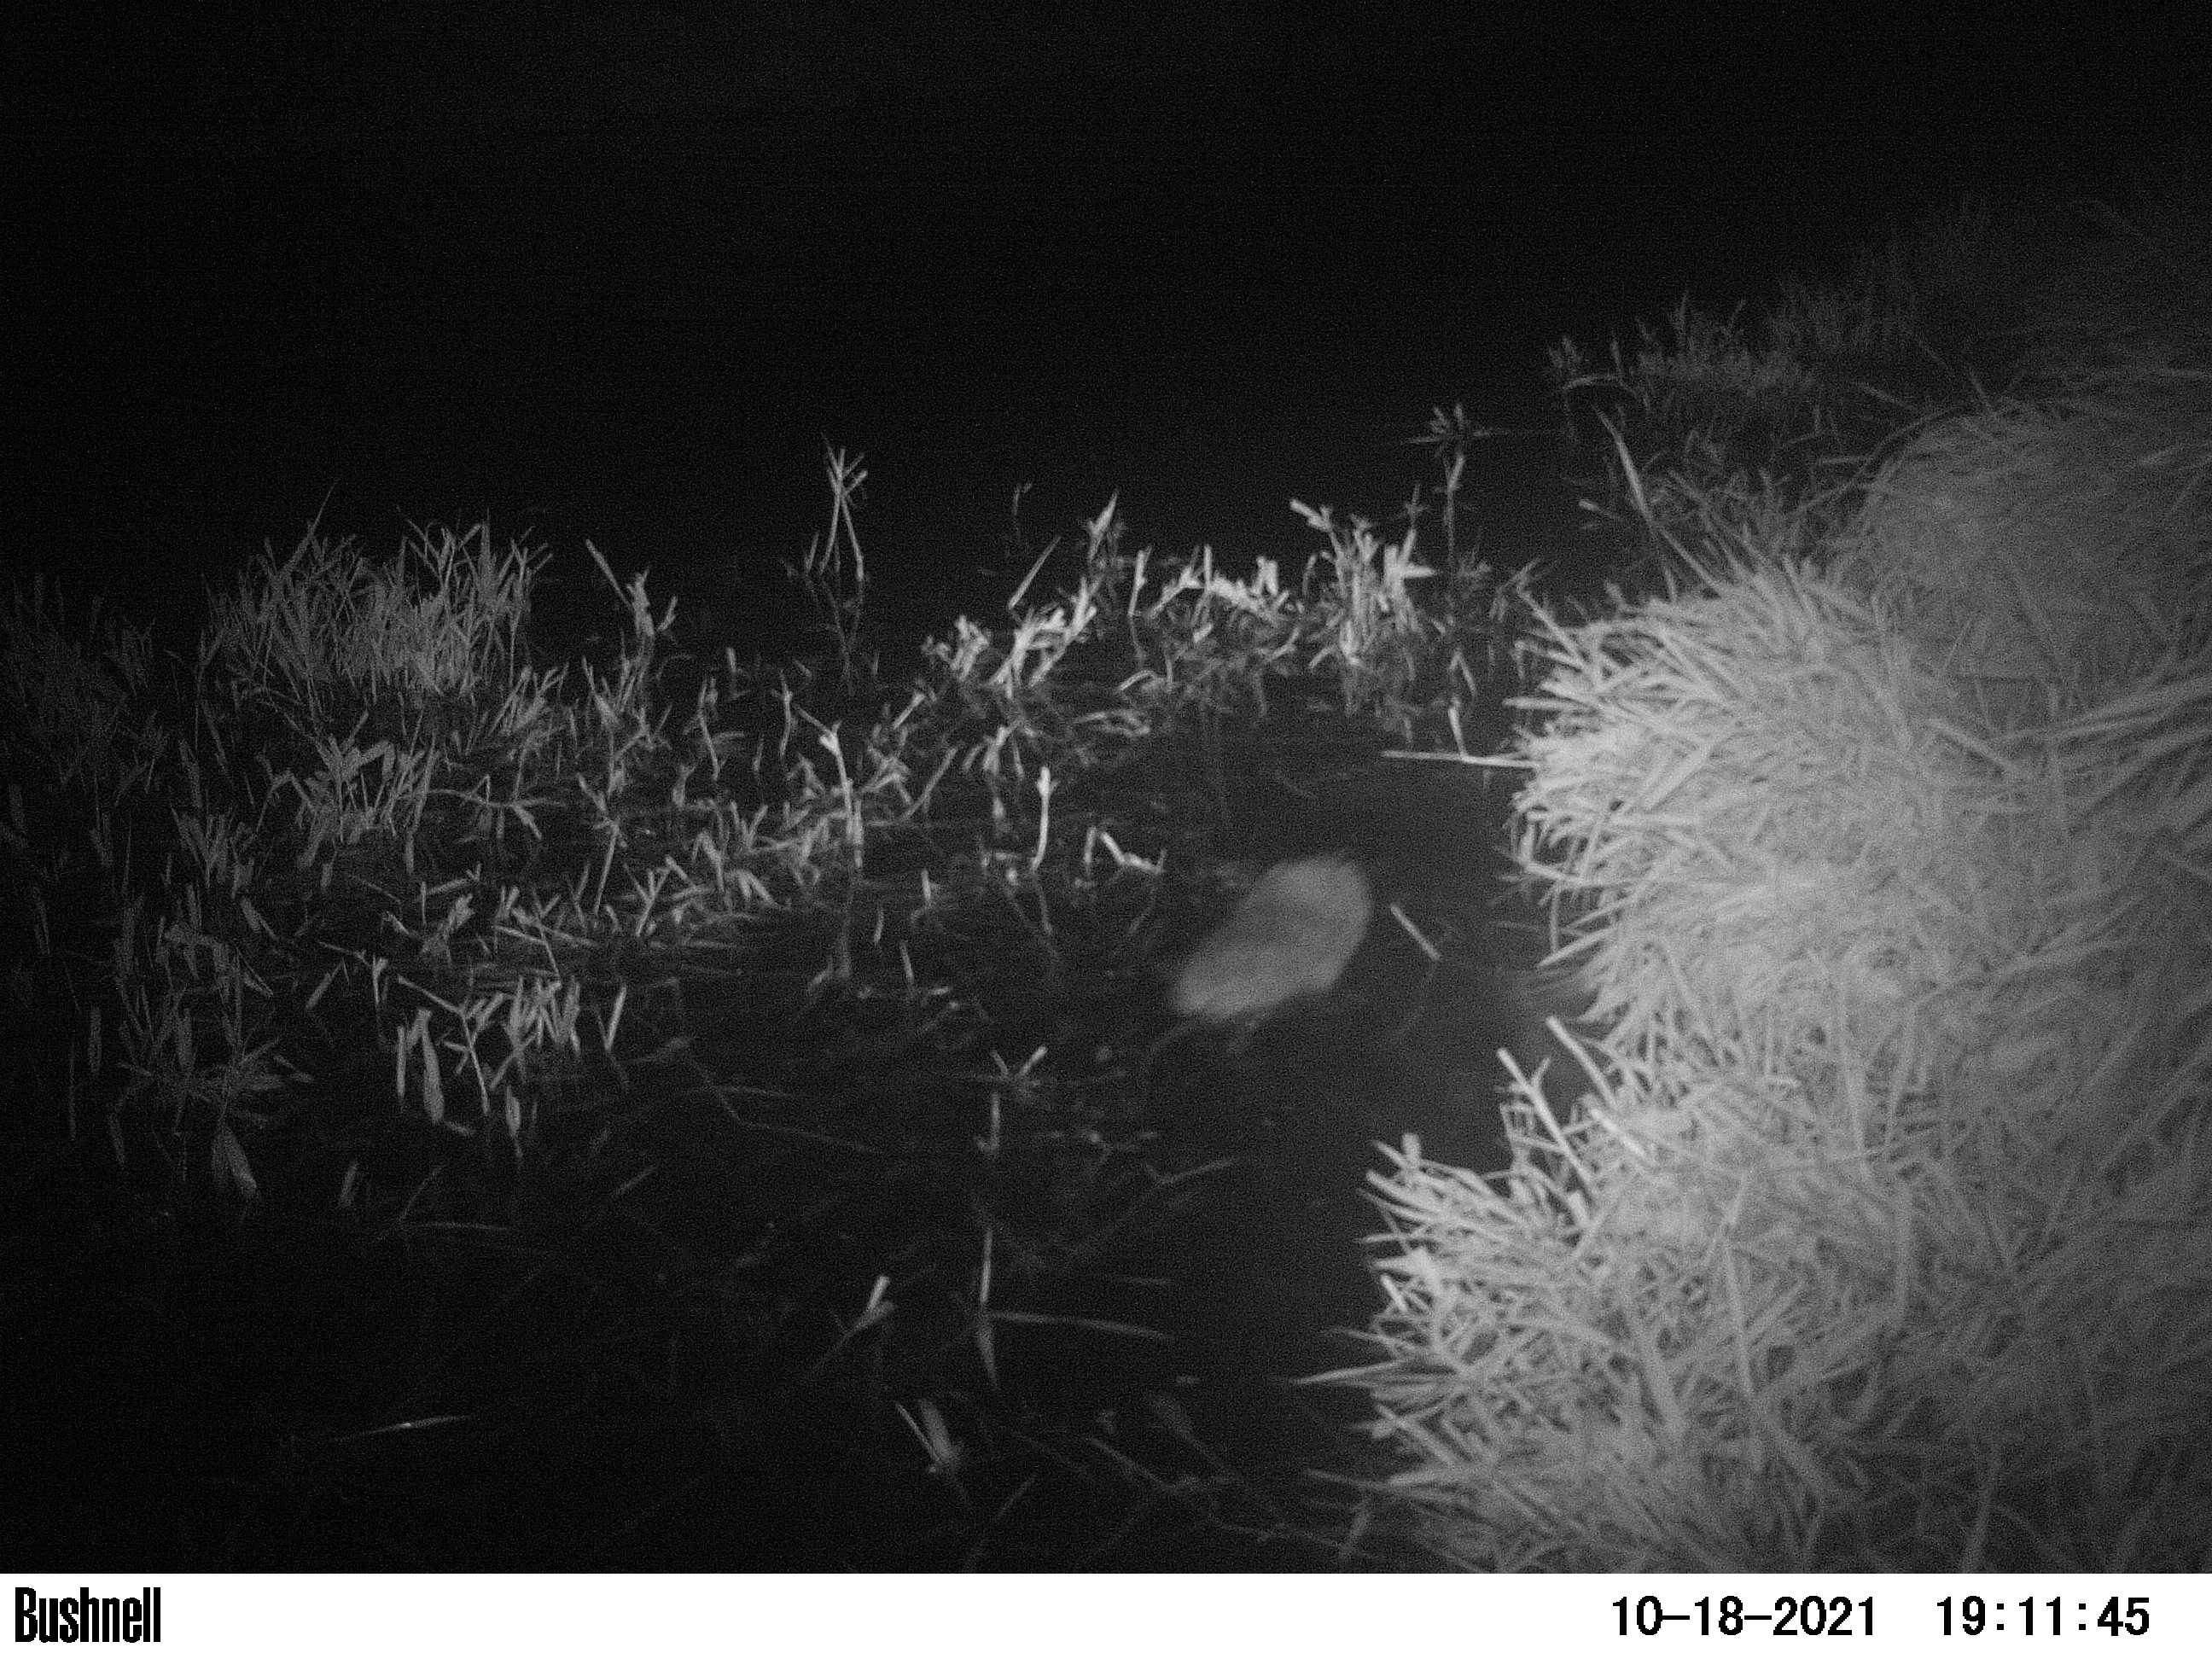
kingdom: Animalia
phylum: Chordata
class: Mammalia
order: Rodentia
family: Cricetidae
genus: Ondatra
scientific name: Ondatra zibethicus
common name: Muskrat
